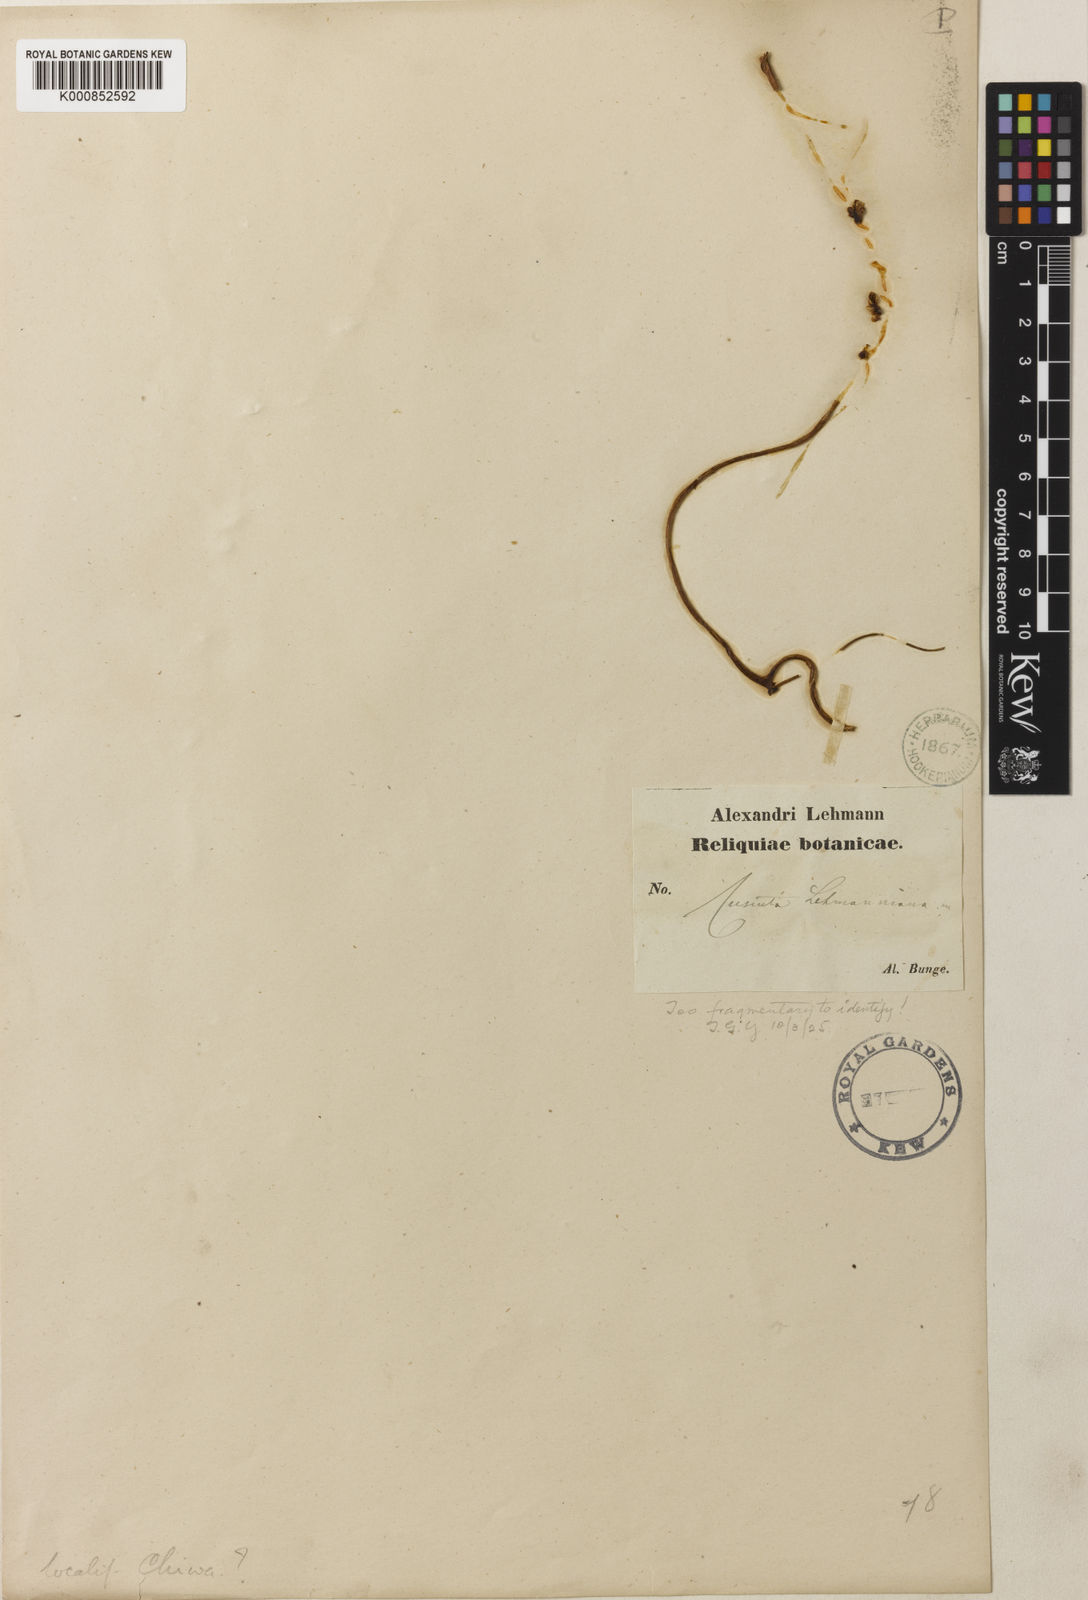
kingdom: Plantae
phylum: Tracheophyta
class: Magnoliopsida
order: Solanales
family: Convolvulaceae
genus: Cuscuta
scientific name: Cuscuta lehmanniana
